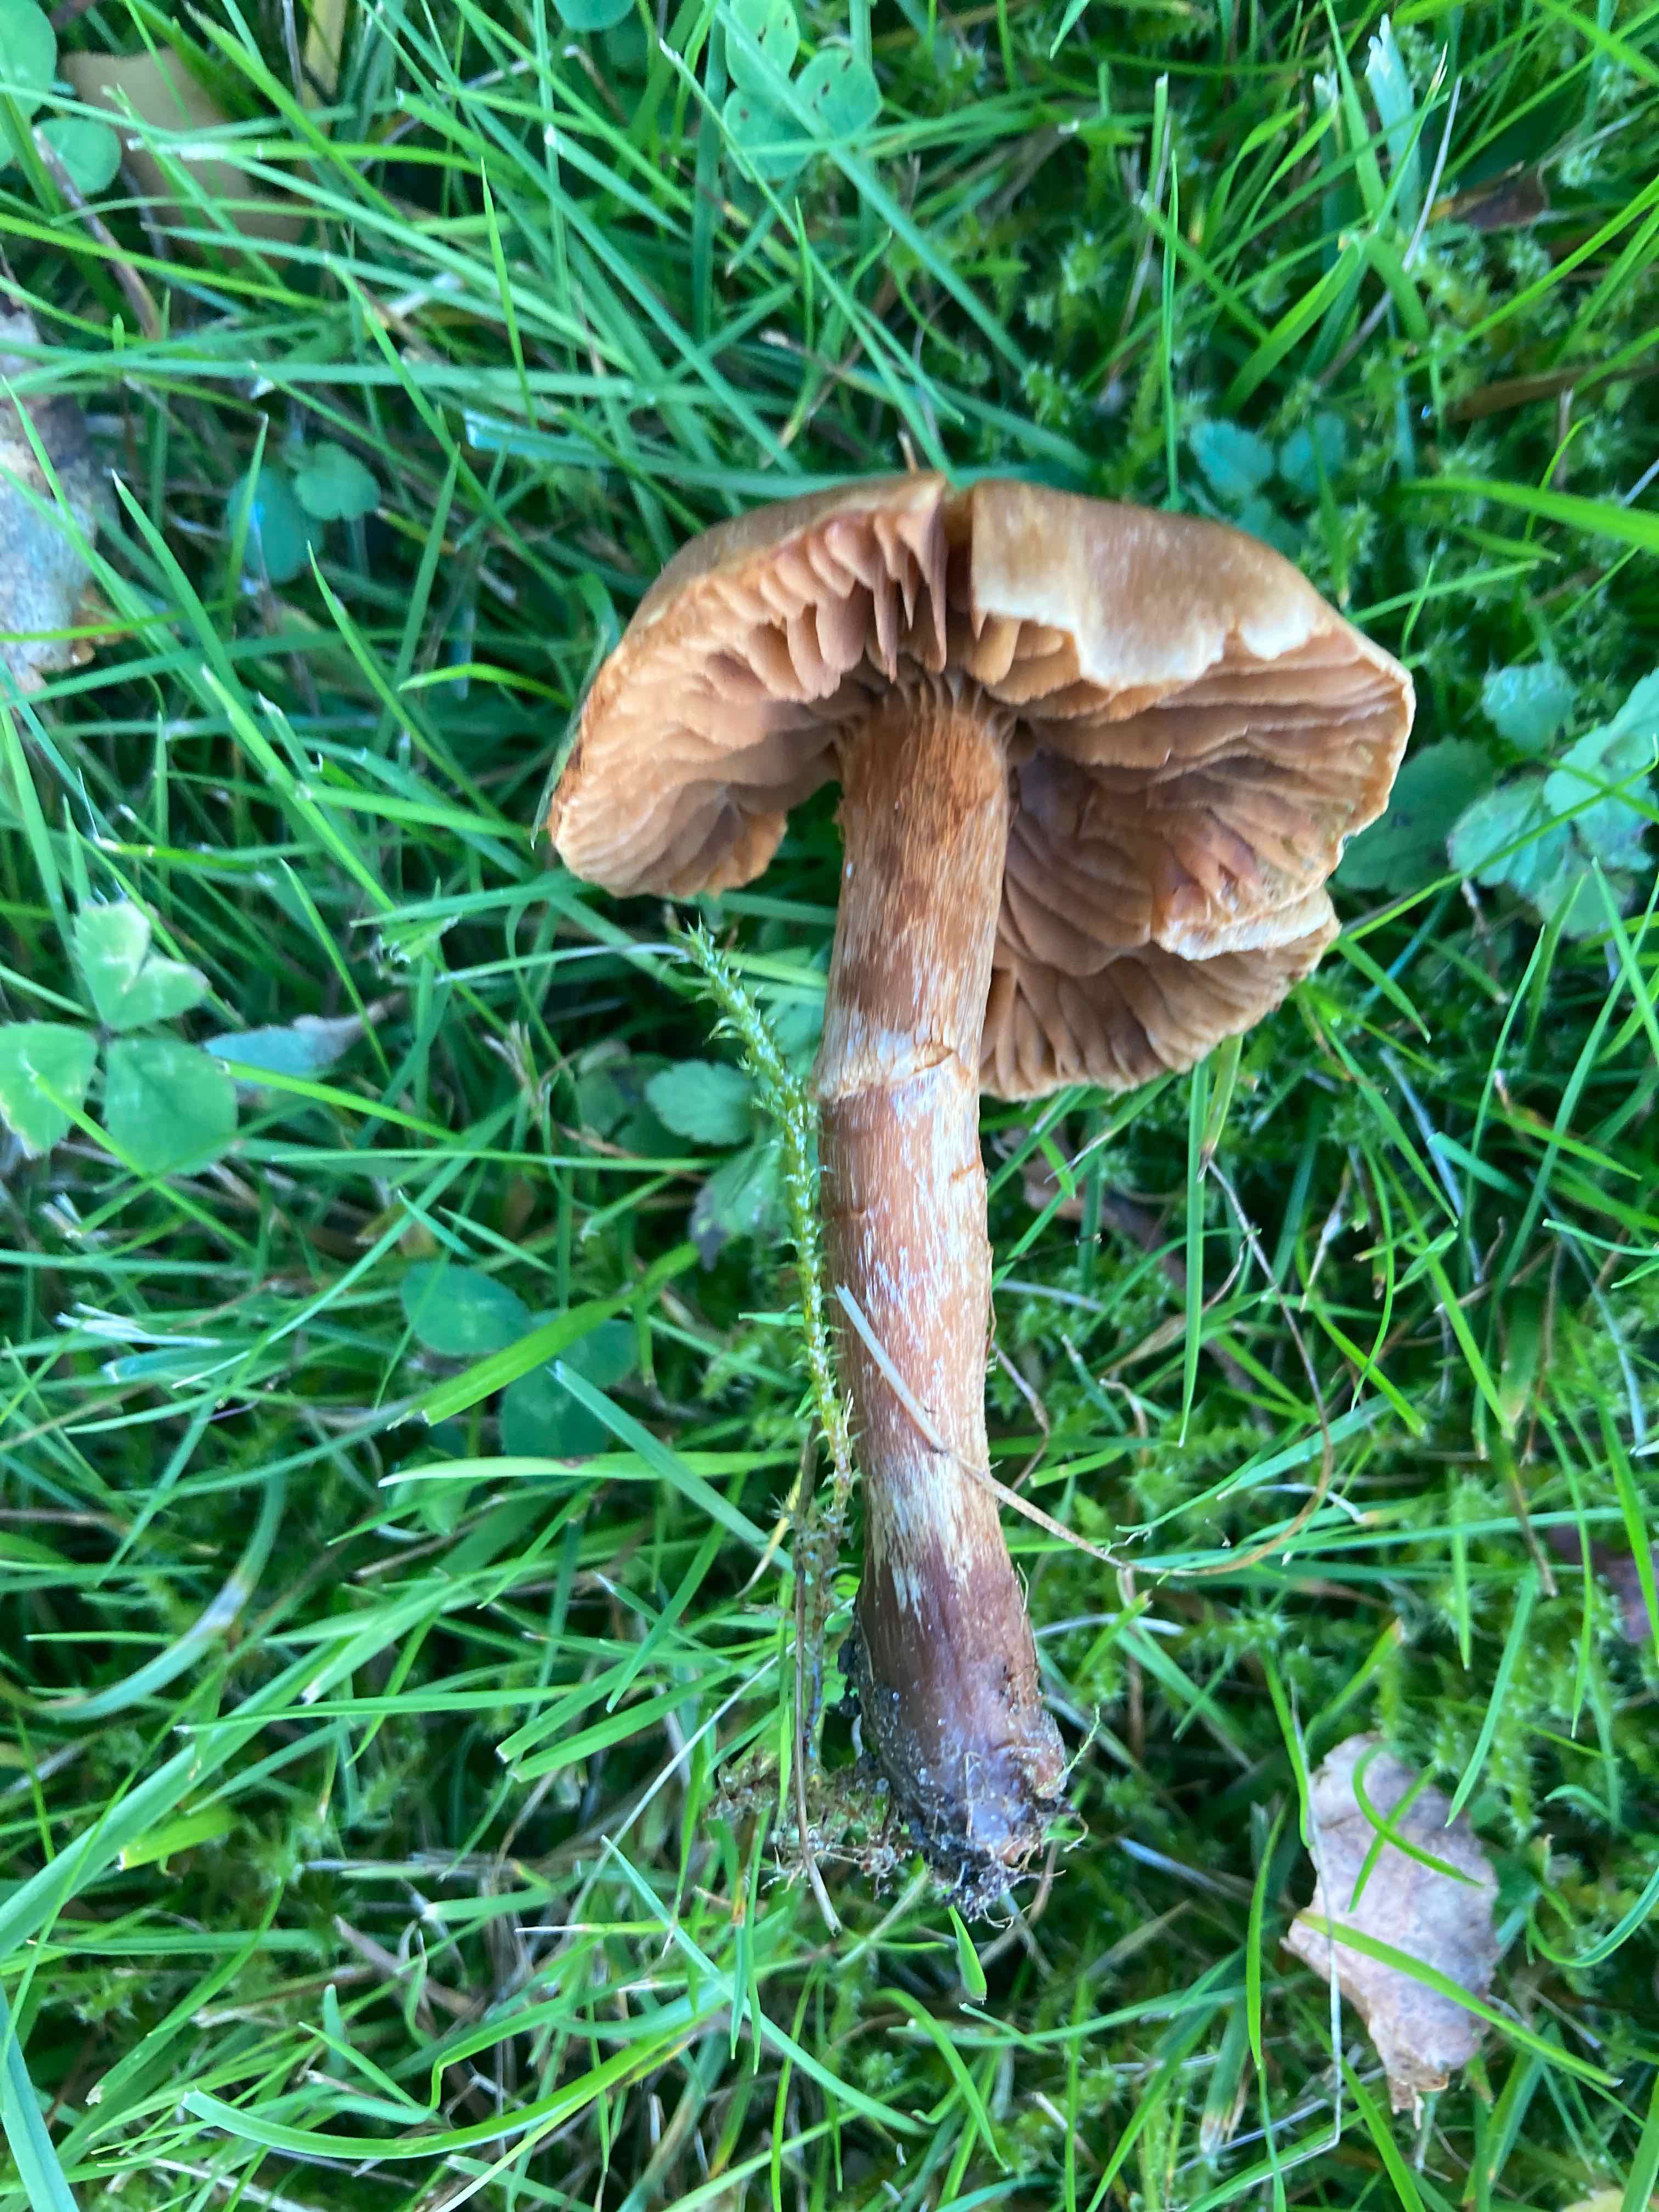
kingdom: Fungi
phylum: Basidiomycota
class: Agaricomycetes
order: Agaricales
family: Cortinariaceae
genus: Cortinarius
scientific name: Cortinarius hinnuleus
